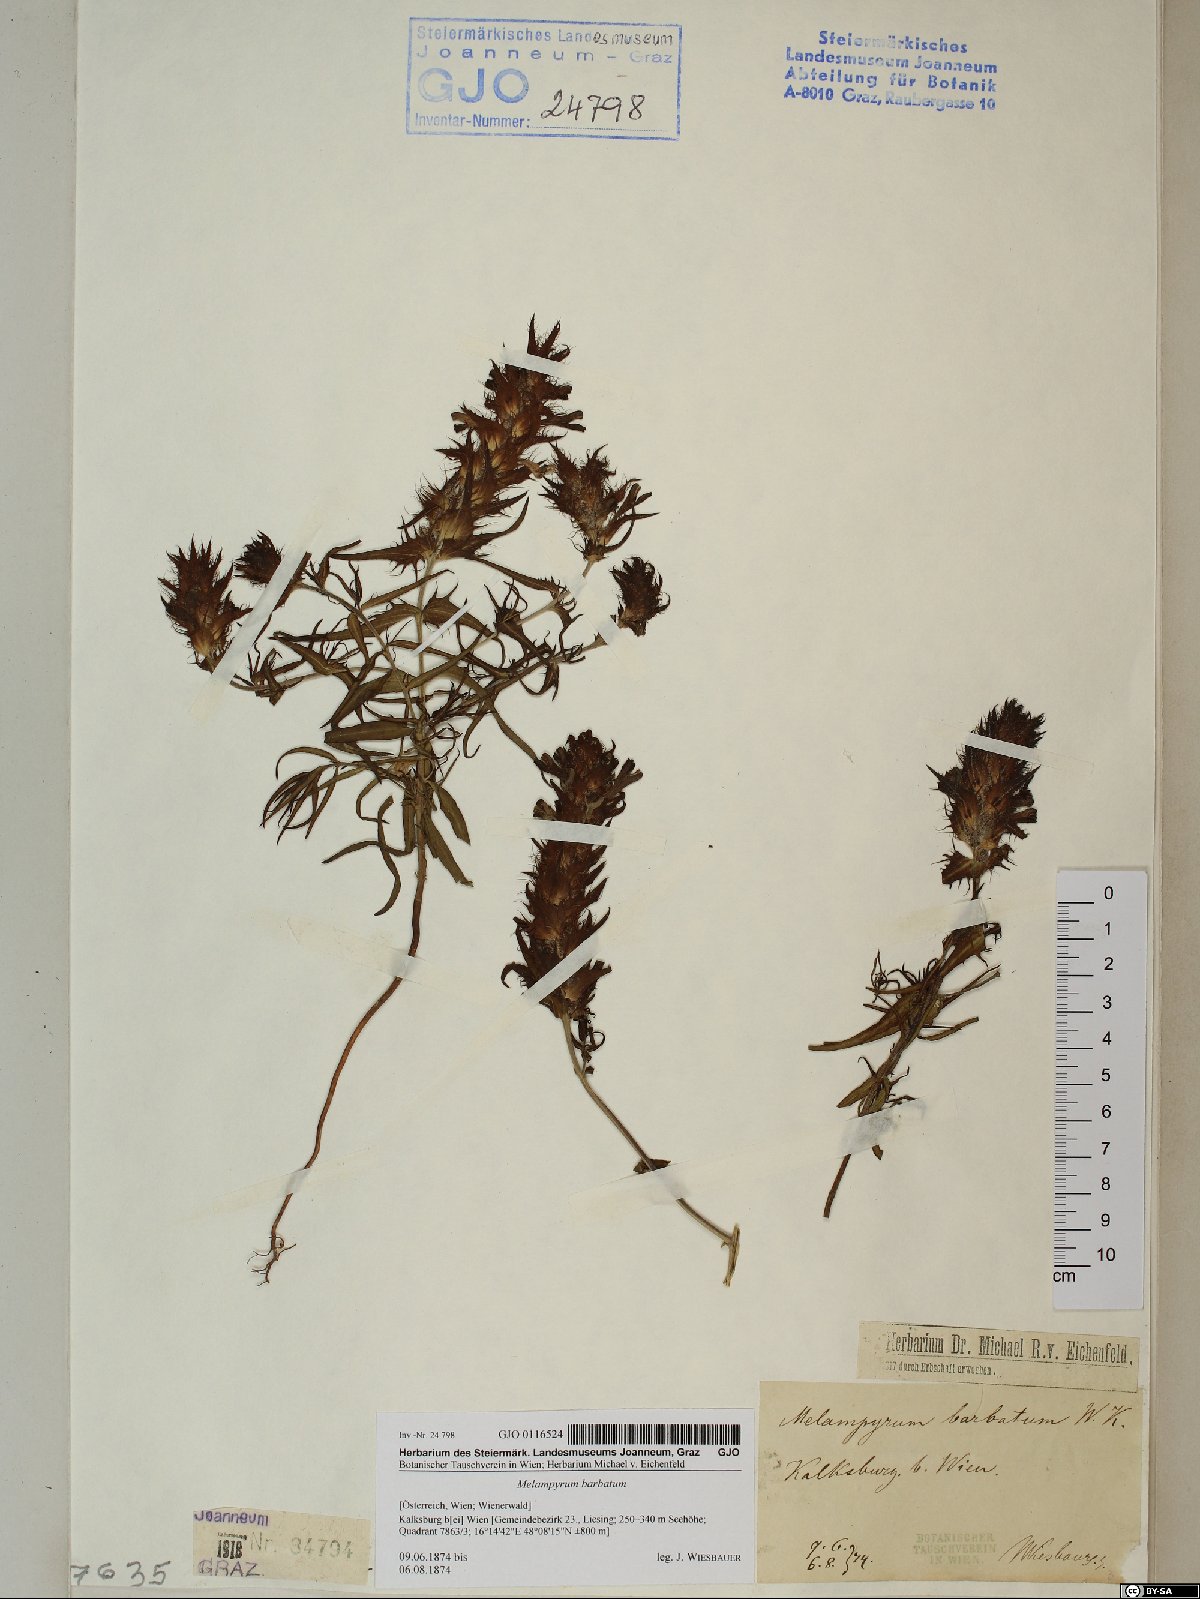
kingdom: Plantae
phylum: Tracheophyta
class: Magnoliopsida
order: Lamiales
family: Orobanchaceae
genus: Melampyrum
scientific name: Melampyrum barbatum
